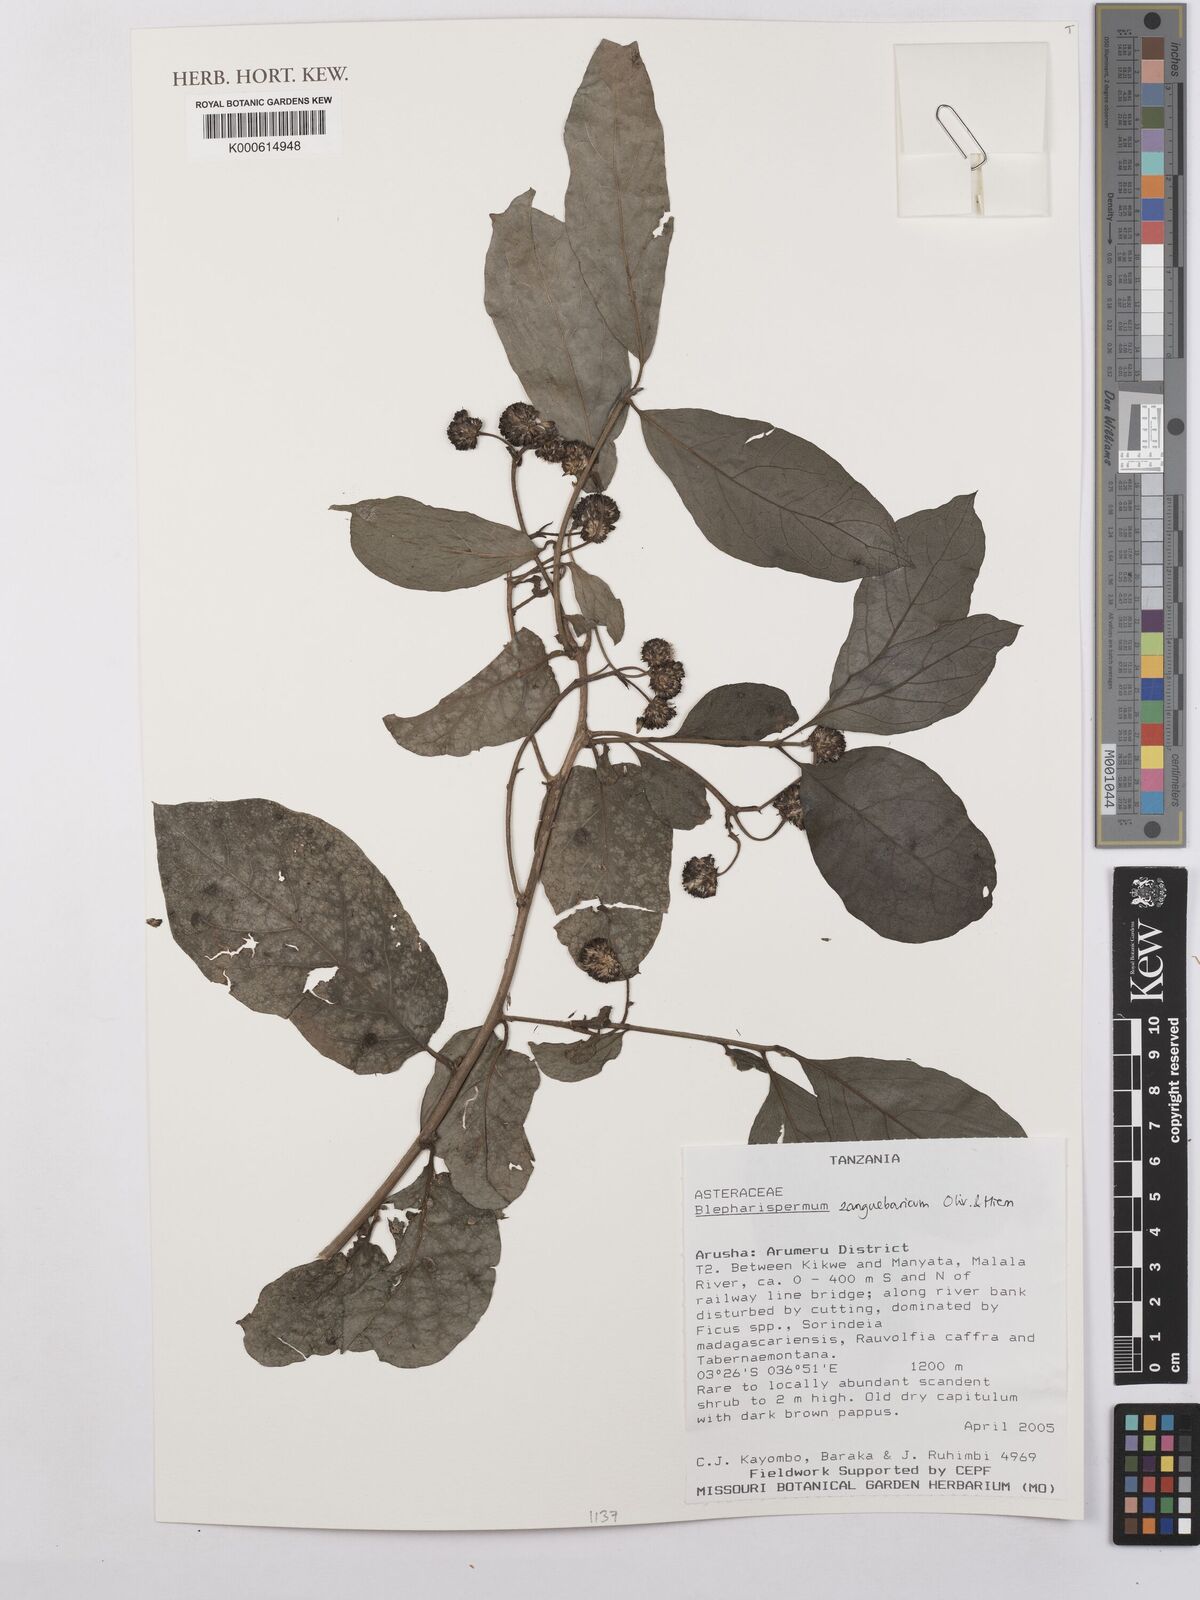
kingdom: Plantae
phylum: Tracheophyta
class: Magnoliopsida
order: Asterales
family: Asteraceae
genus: Blepharispermum
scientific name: Blepharispermum zanguebaricum
